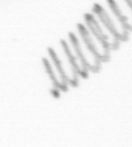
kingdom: Chromista
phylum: Ochrophyta
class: Bacillariophyceae
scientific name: Bacillariophyceae
